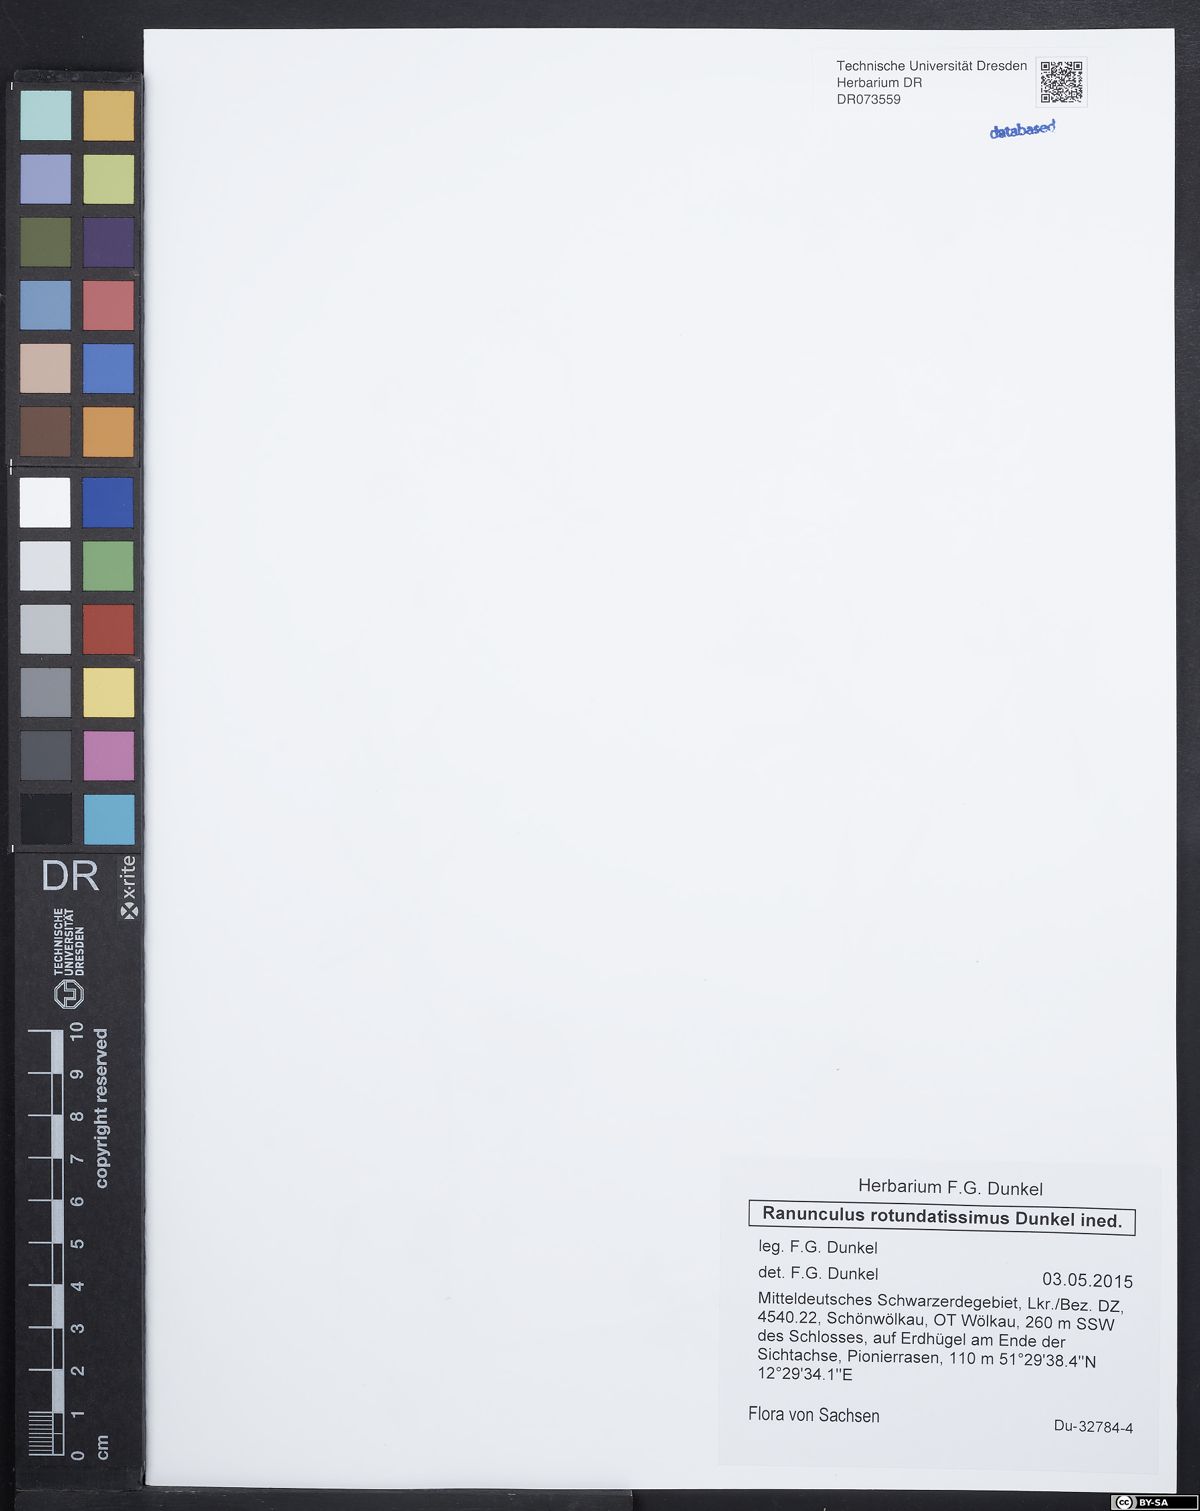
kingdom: Plantae
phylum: Tracheophyta
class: Magnoliopsida
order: Ranunculales
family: Ranunculaceae
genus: Ranunculus
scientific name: Ranunculus rotundatissimus
